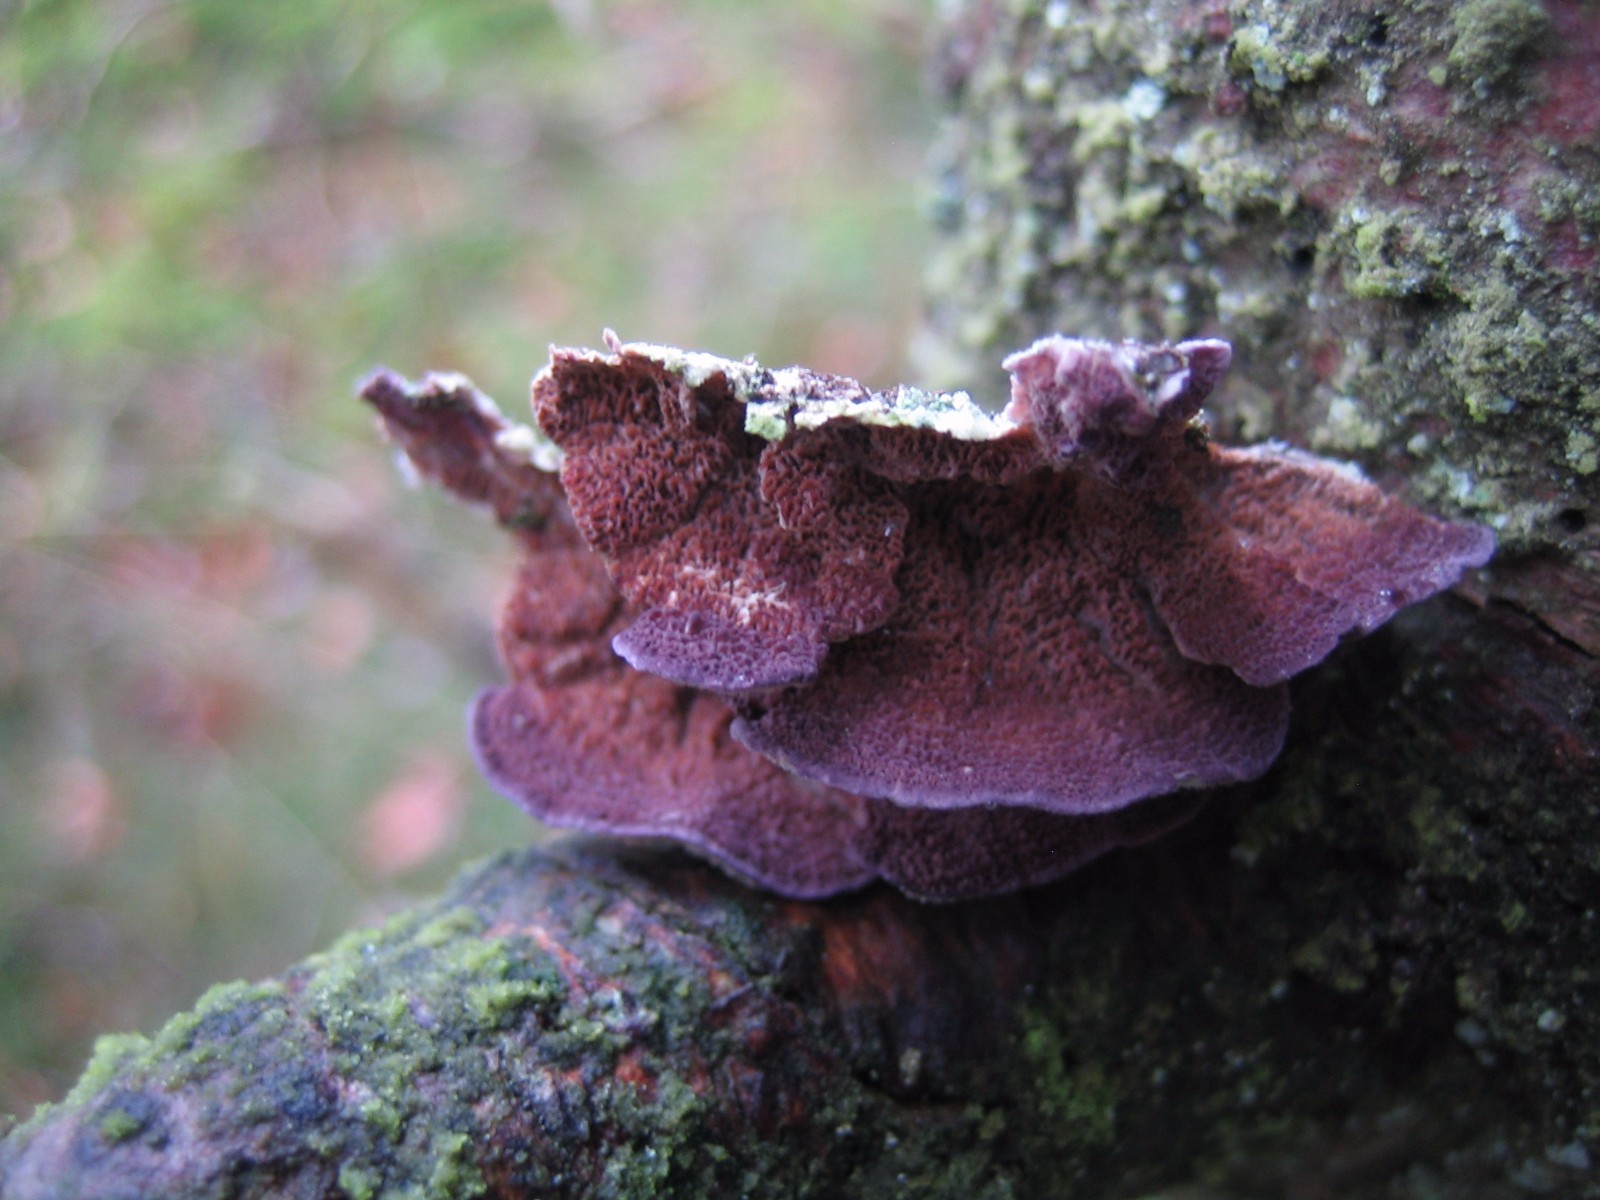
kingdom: Fungi
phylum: Basidiomycota
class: Agaricomycetes
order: Hymenochaetales
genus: Trichaptum
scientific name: Trichaptum abietinum
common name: almindelig violporesvamp
